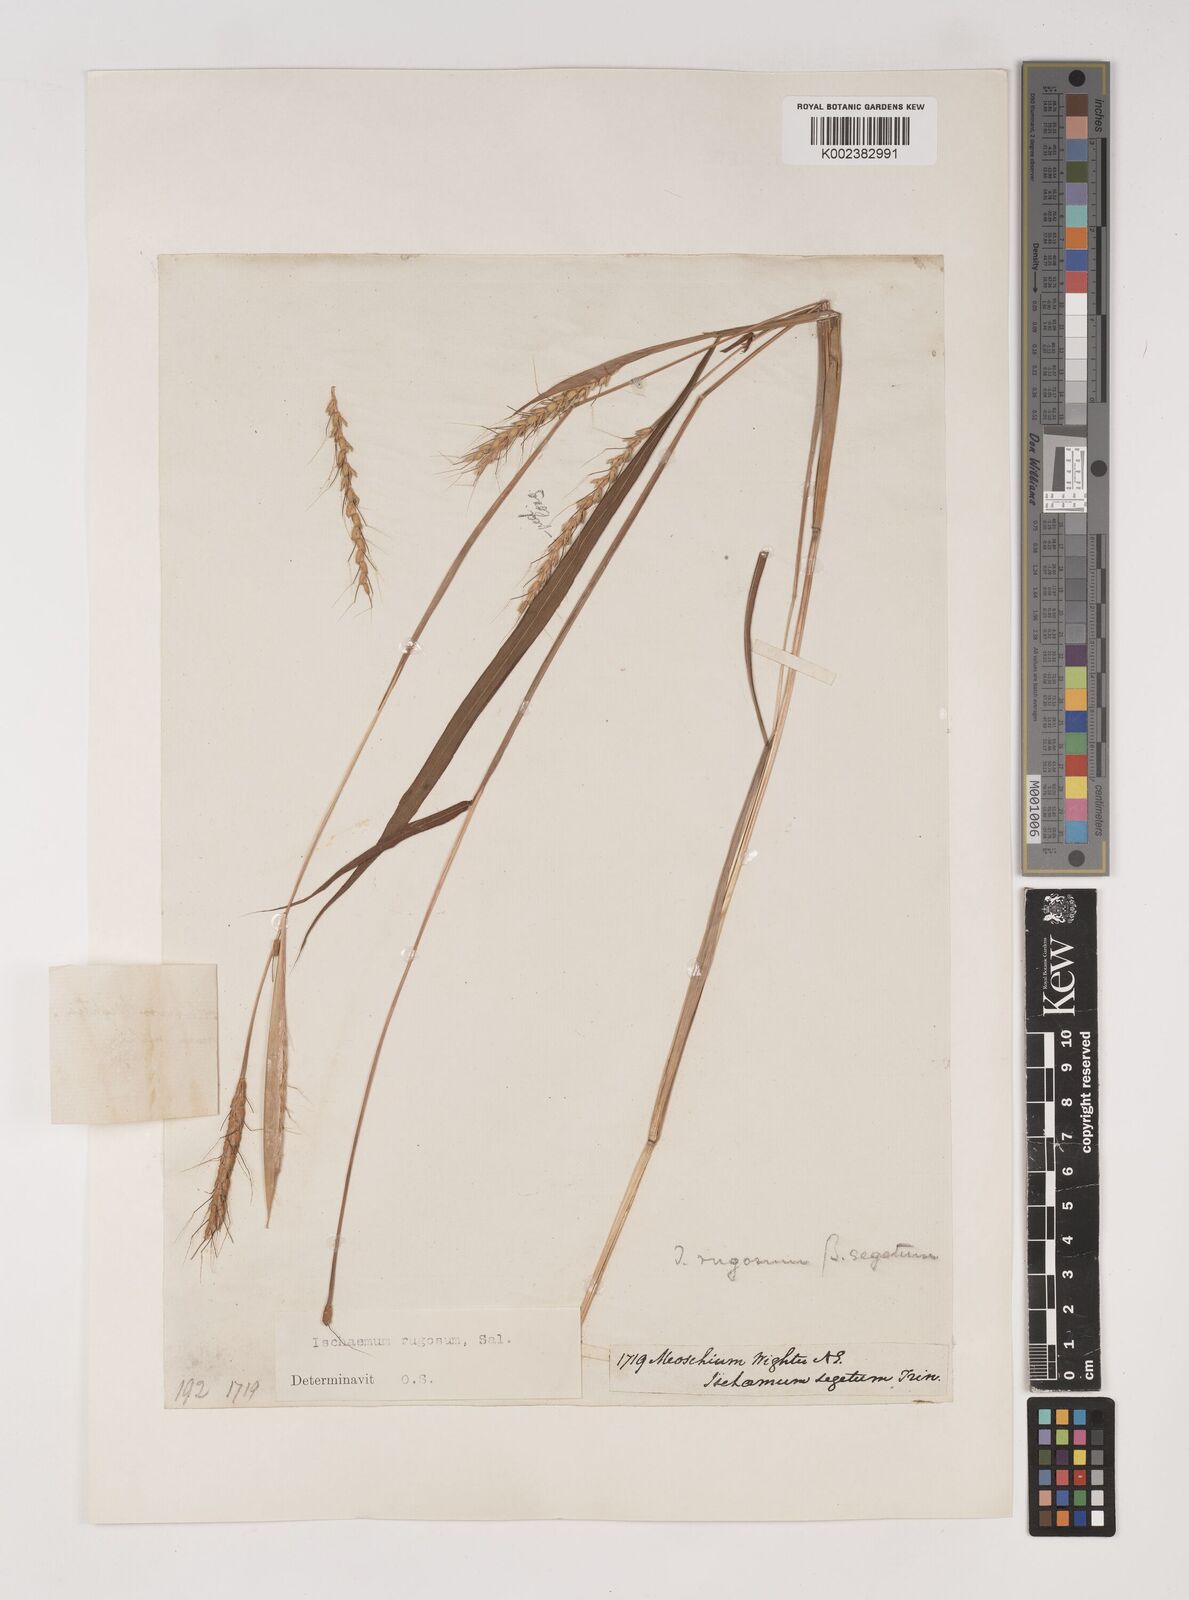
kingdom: Plantae
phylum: Tracheophyta
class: Liliopsida
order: Poales
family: Poaceae
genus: Ischaemum
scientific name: Ischaemum rugosum
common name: Saramatta grass
